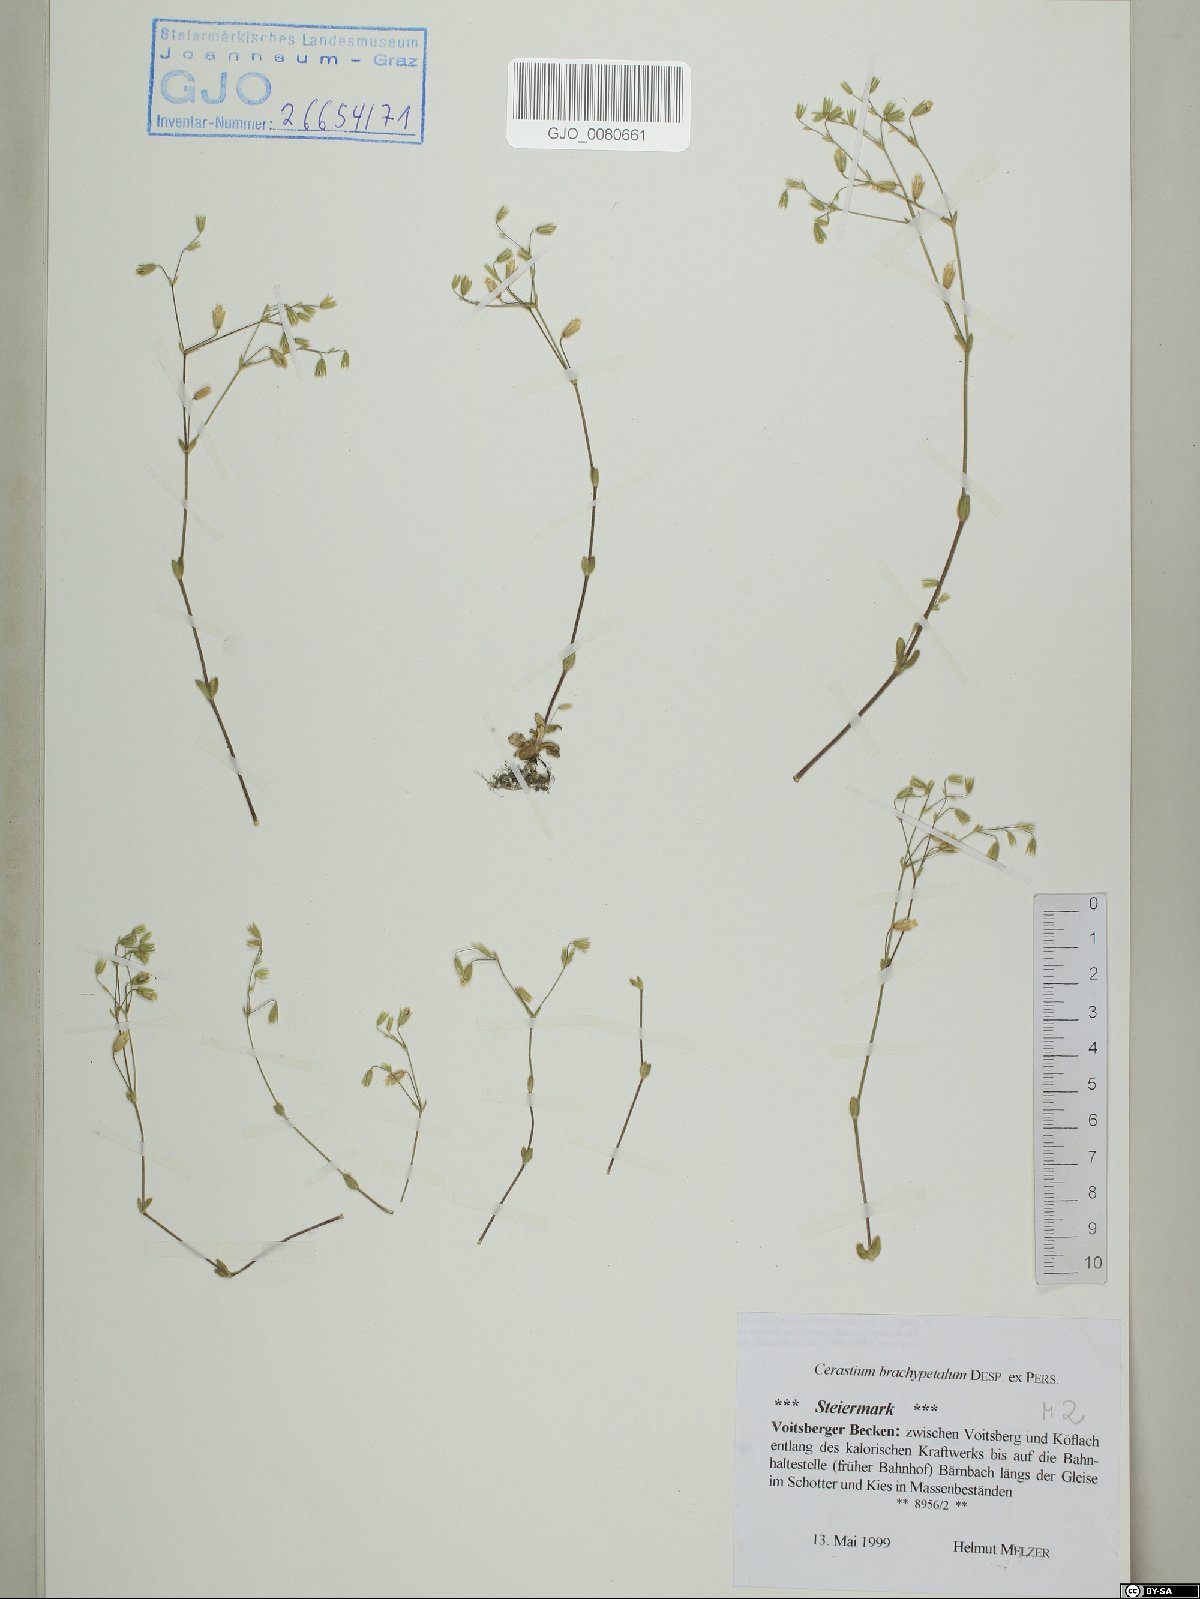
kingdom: Plantae
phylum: Tracheophyta
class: Magnoliopsida
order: Caryophyllales
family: Caryophyllaceae
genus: Cerastium
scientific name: Cerastium brachypetalum
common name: Grey mouse-ear
